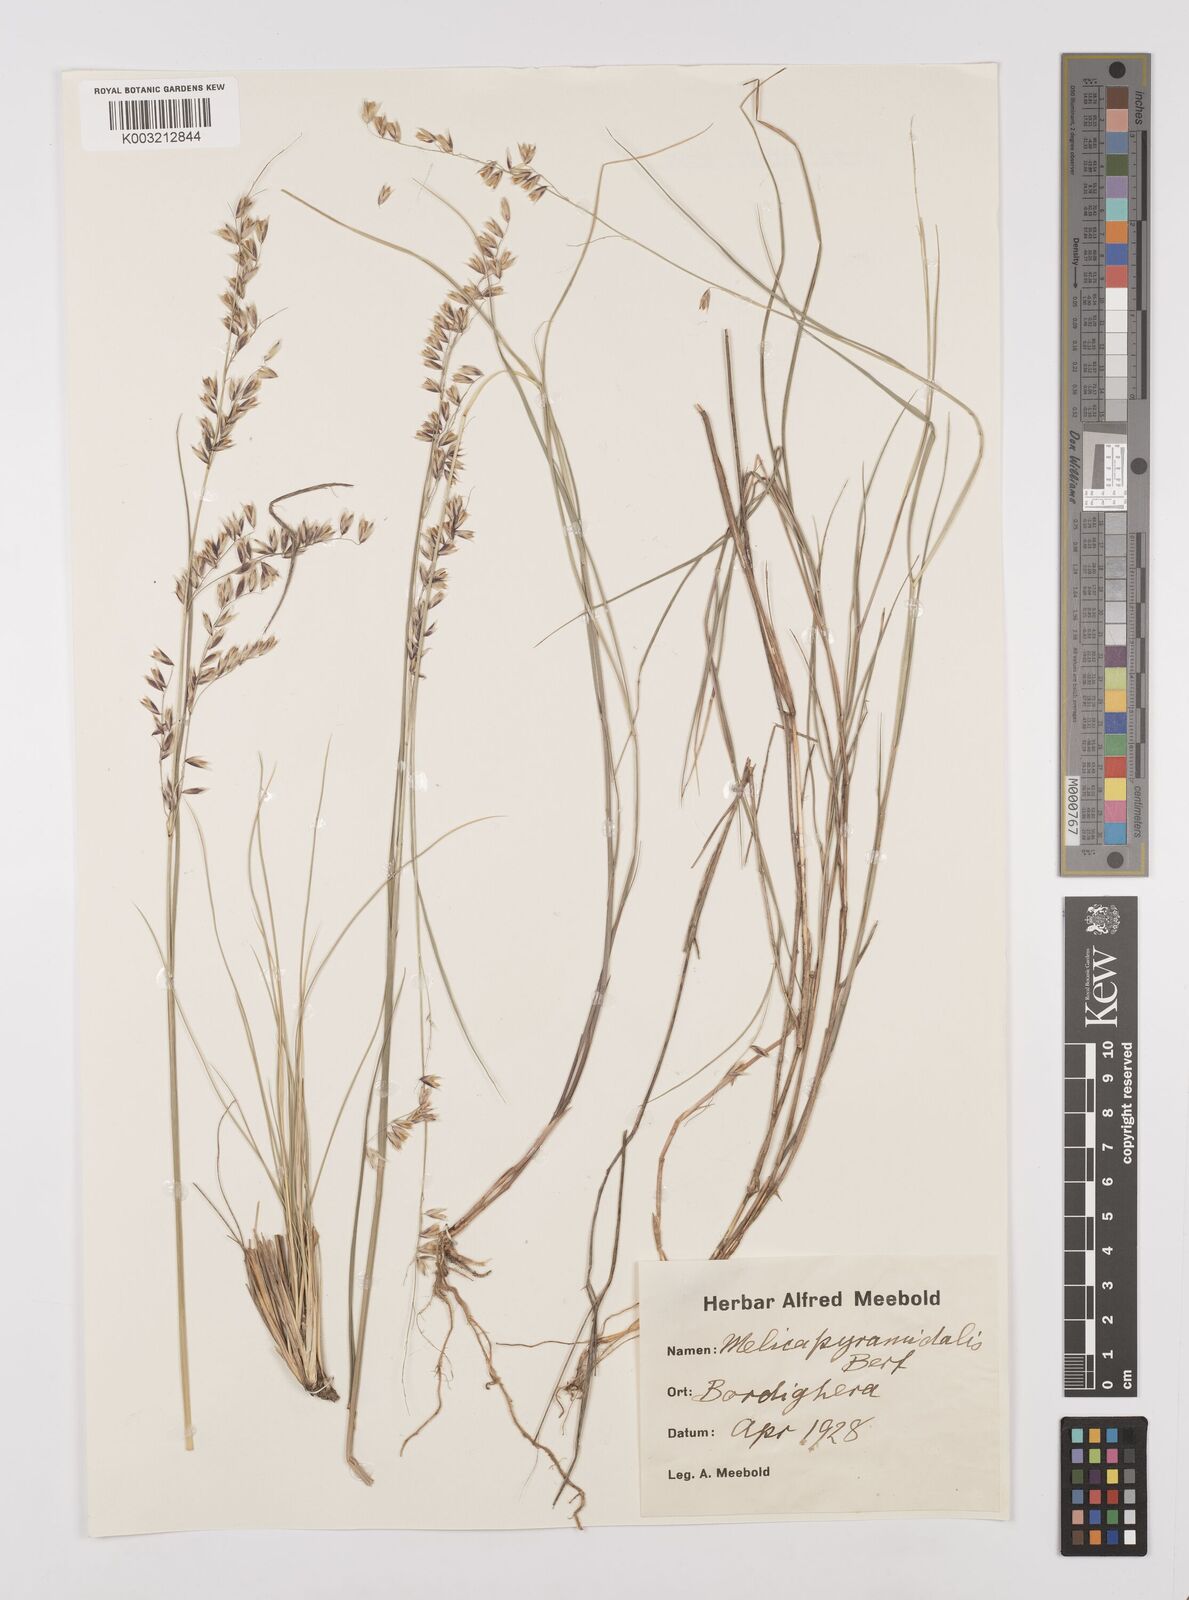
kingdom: Plantae
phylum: Tracheophyta
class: Liliopsida
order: Poales
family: Poaceae
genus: Melica
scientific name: Melica minuta
